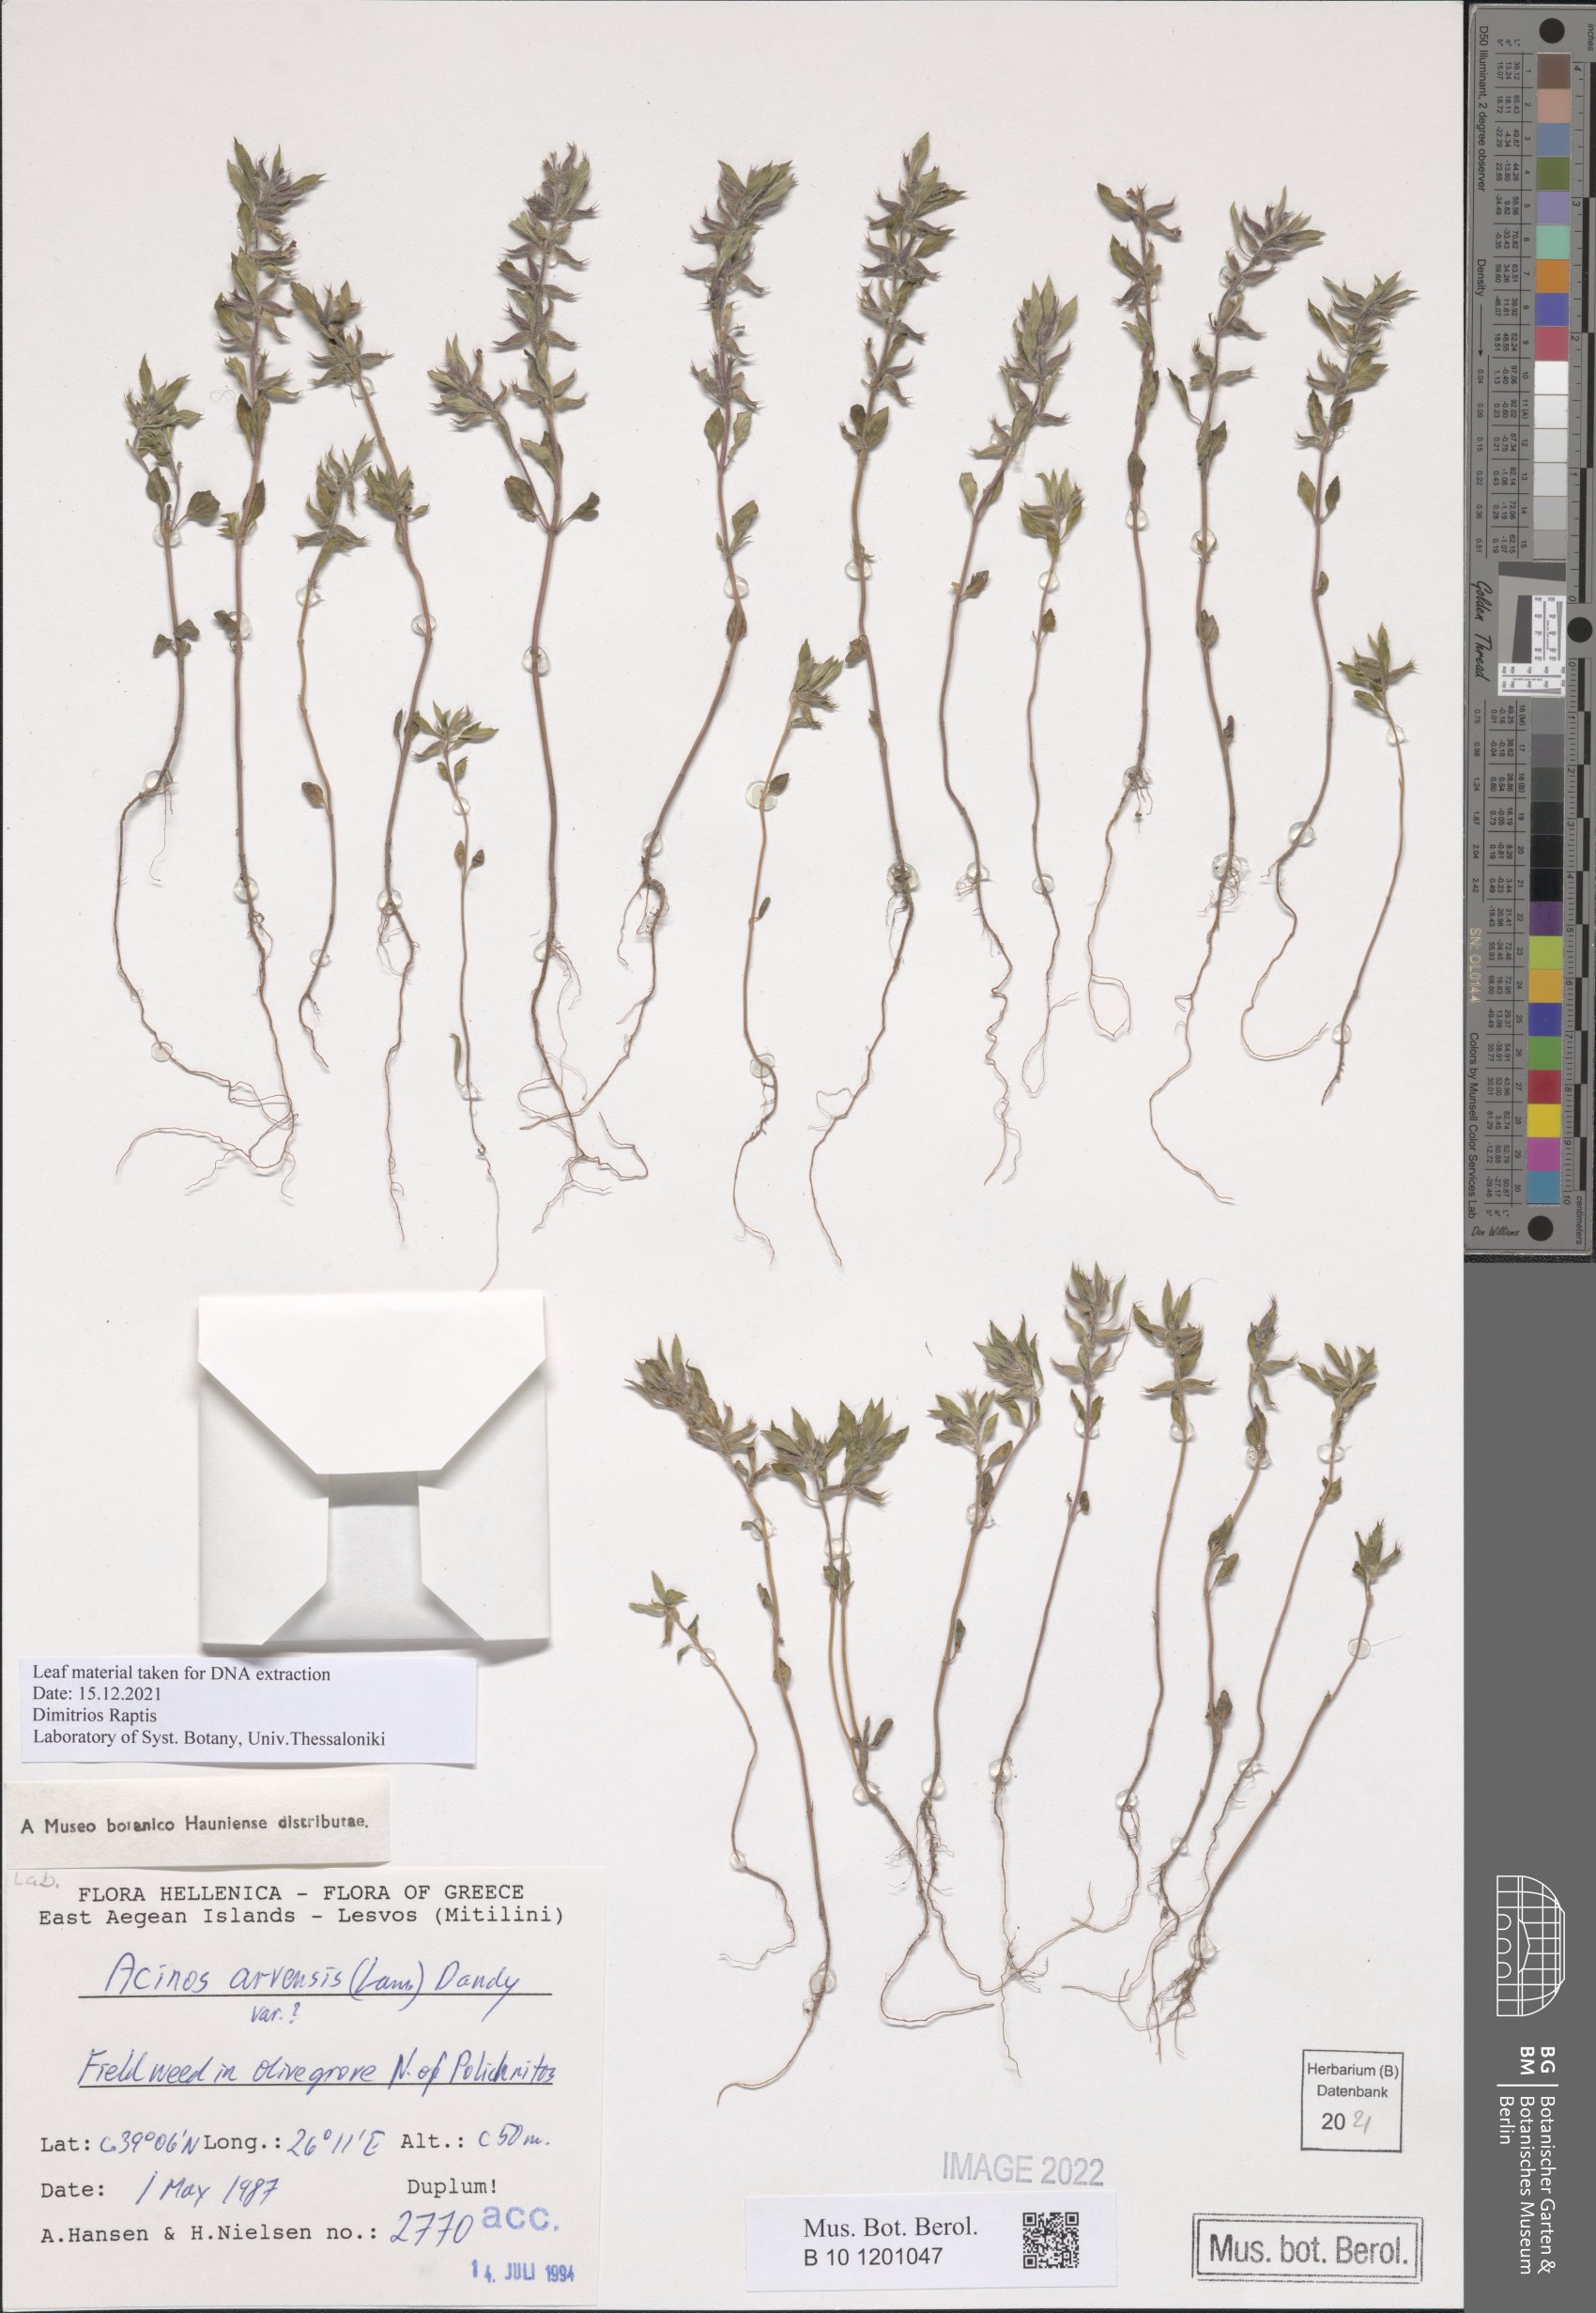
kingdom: Plantae
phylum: Tracheophyta
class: Magnoliopsida
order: Lamiales
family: Lamiaceae
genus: Clinopodium
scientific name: Clinopodium acinos
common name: Basil thyme
